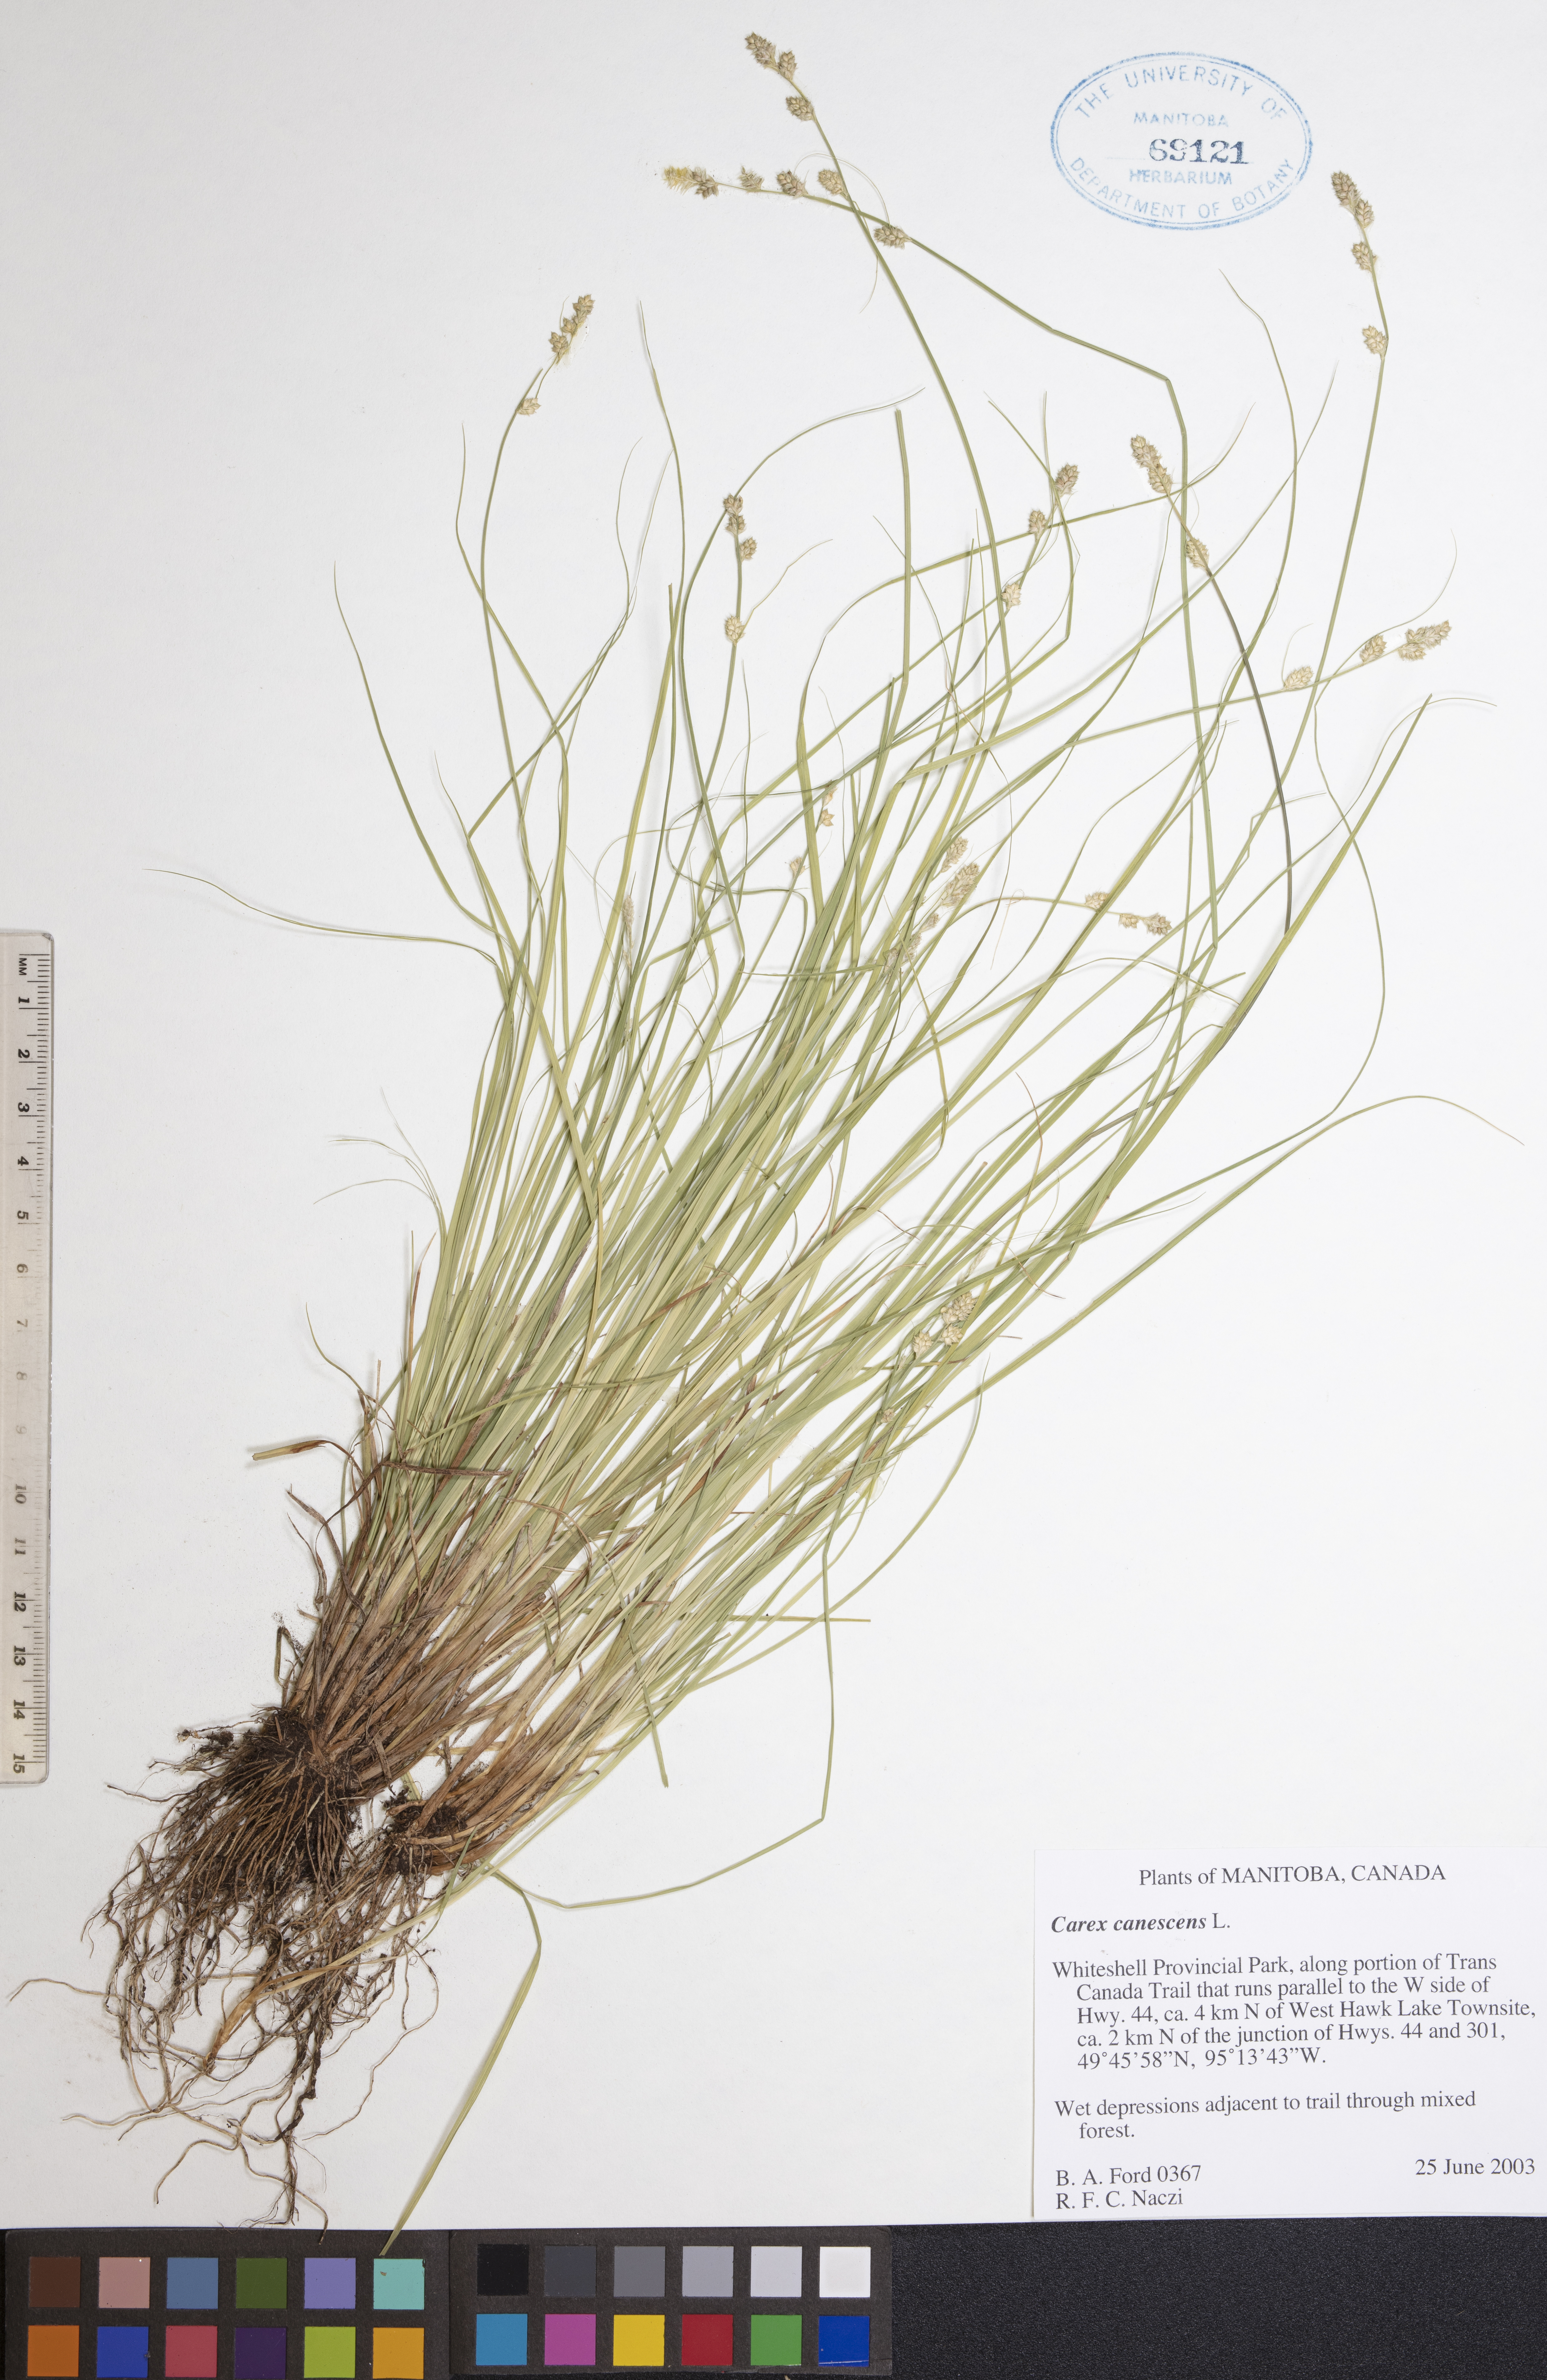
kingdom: Plantae
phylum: Tracheophyta
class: Liliopsida
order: Poales
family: Cyperaceae
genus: Carex
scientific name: Carex canescens
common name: White sedge
